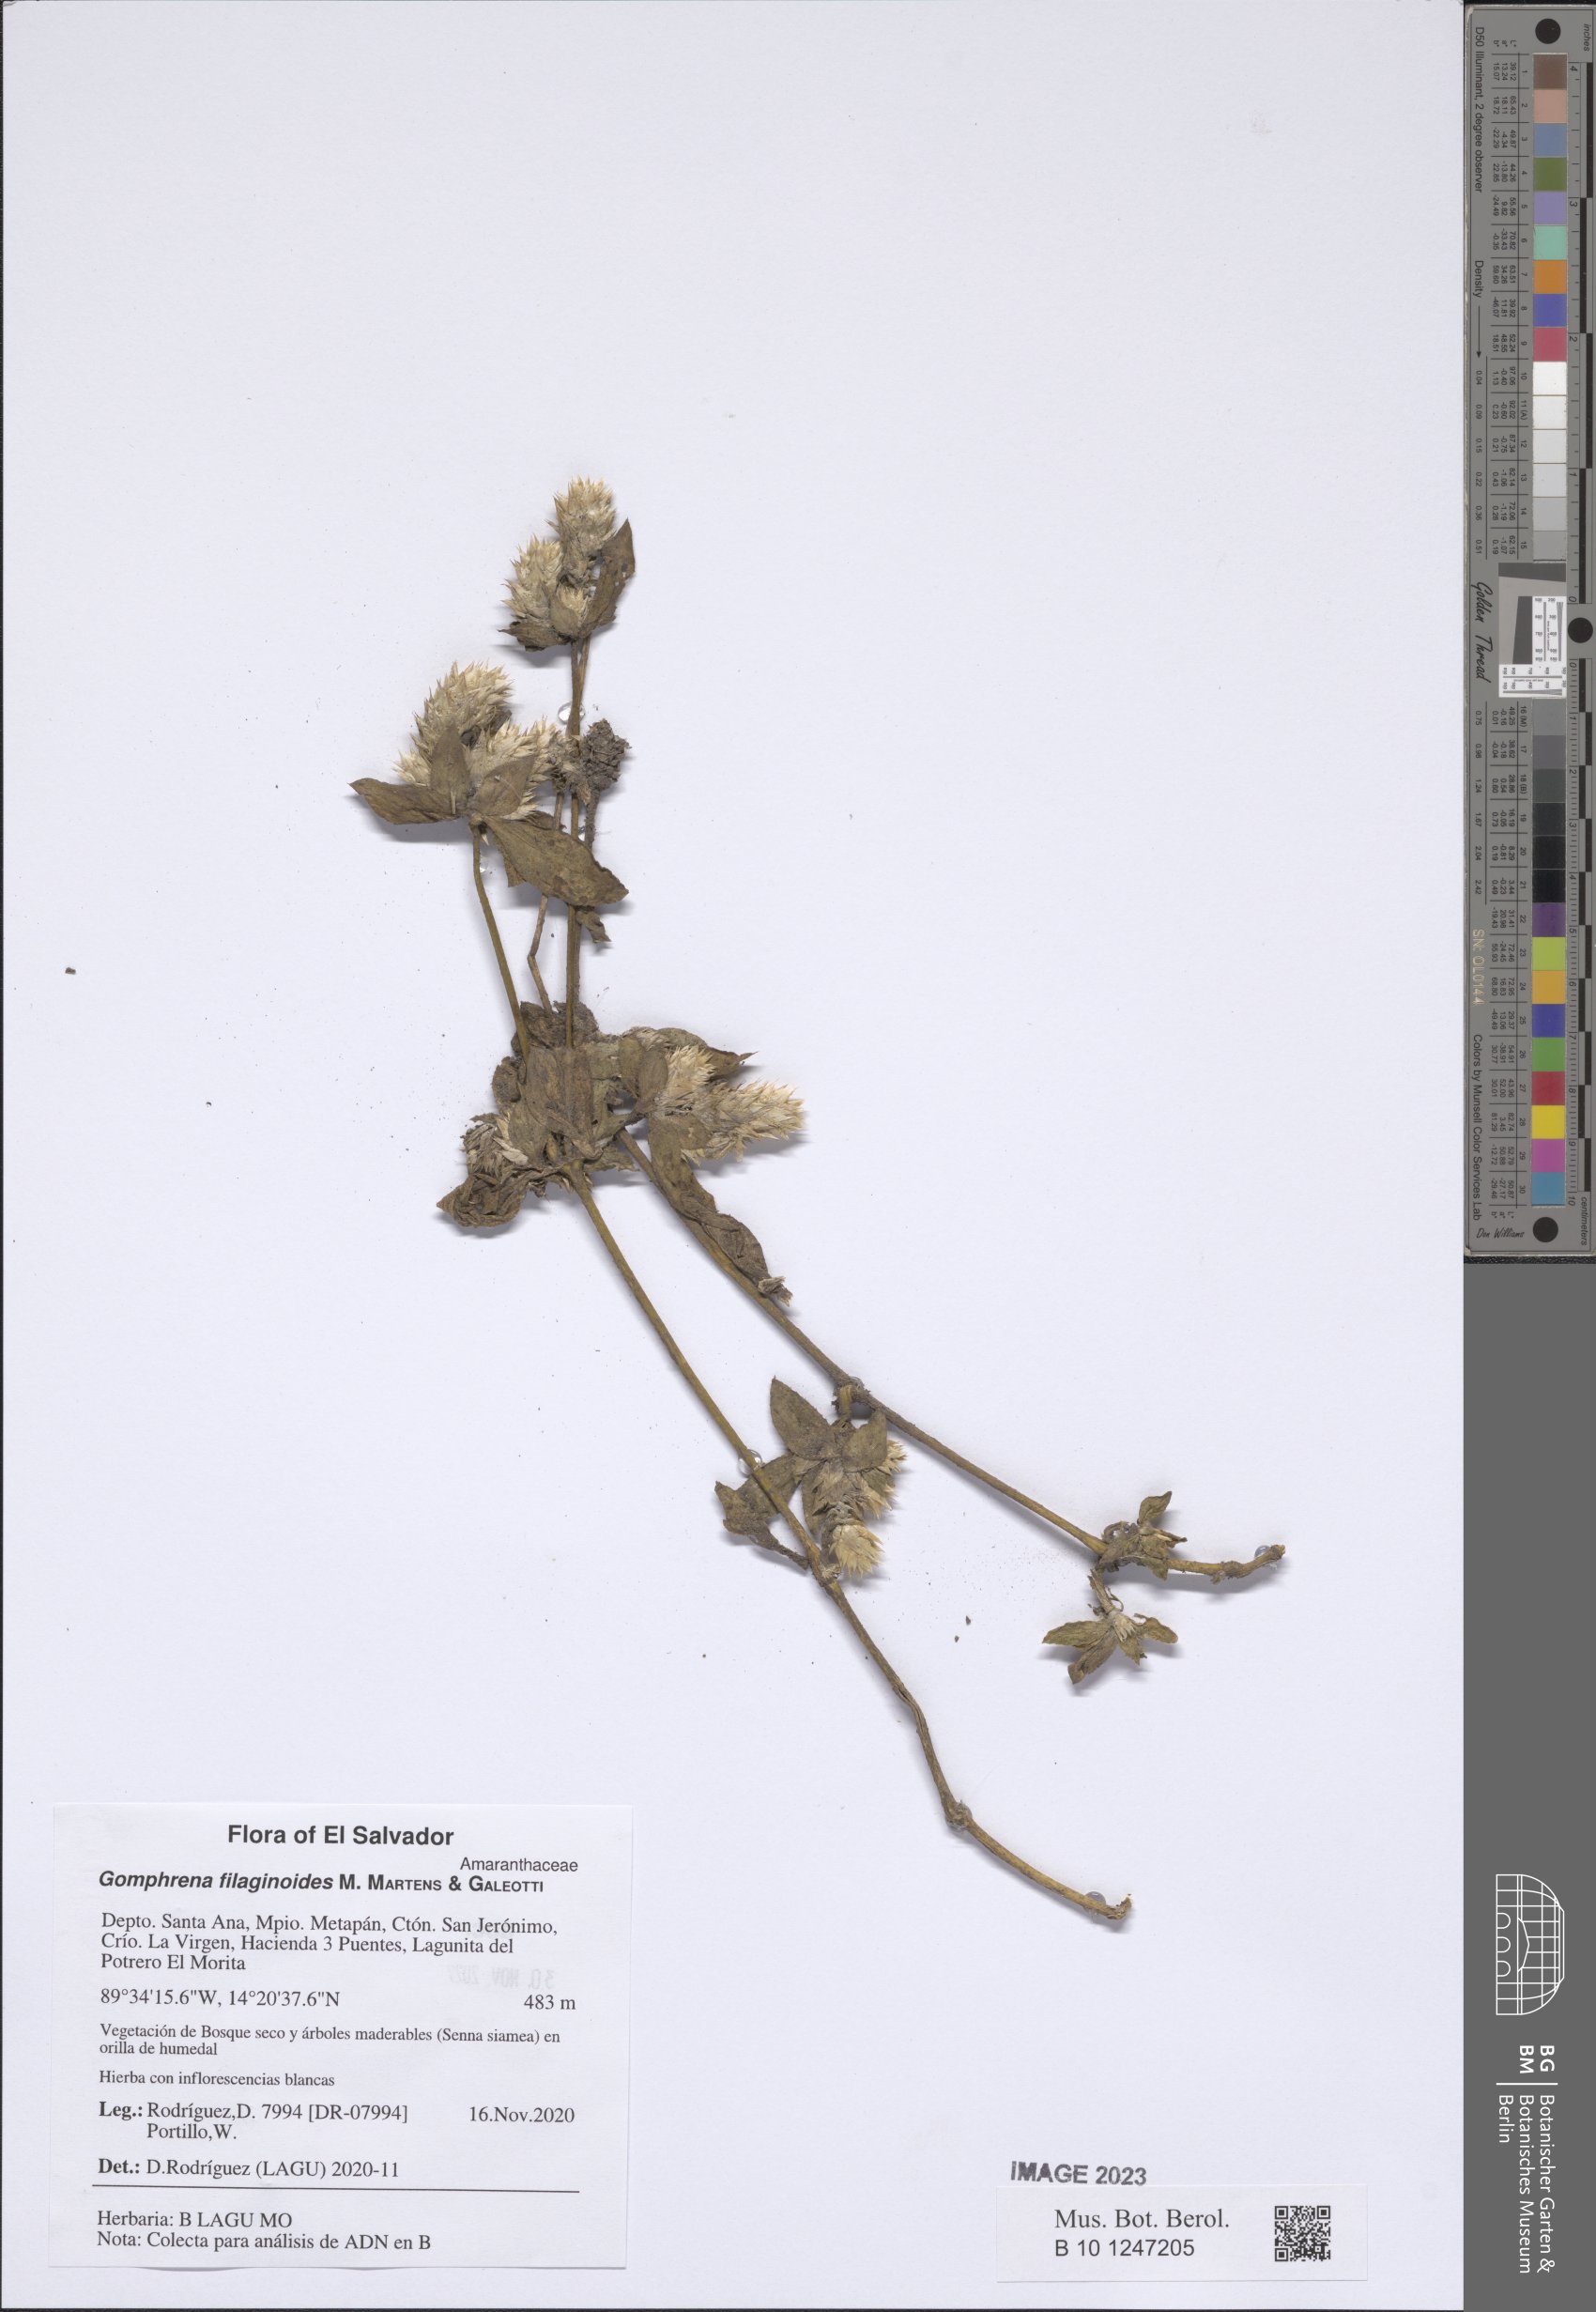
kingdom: Plantae
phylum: Tracheophyta
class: Magnoliopsida
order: Caryophyllales
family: Amaranthaceae
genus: Gomphrena
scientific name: Gomphrena filaginoides
